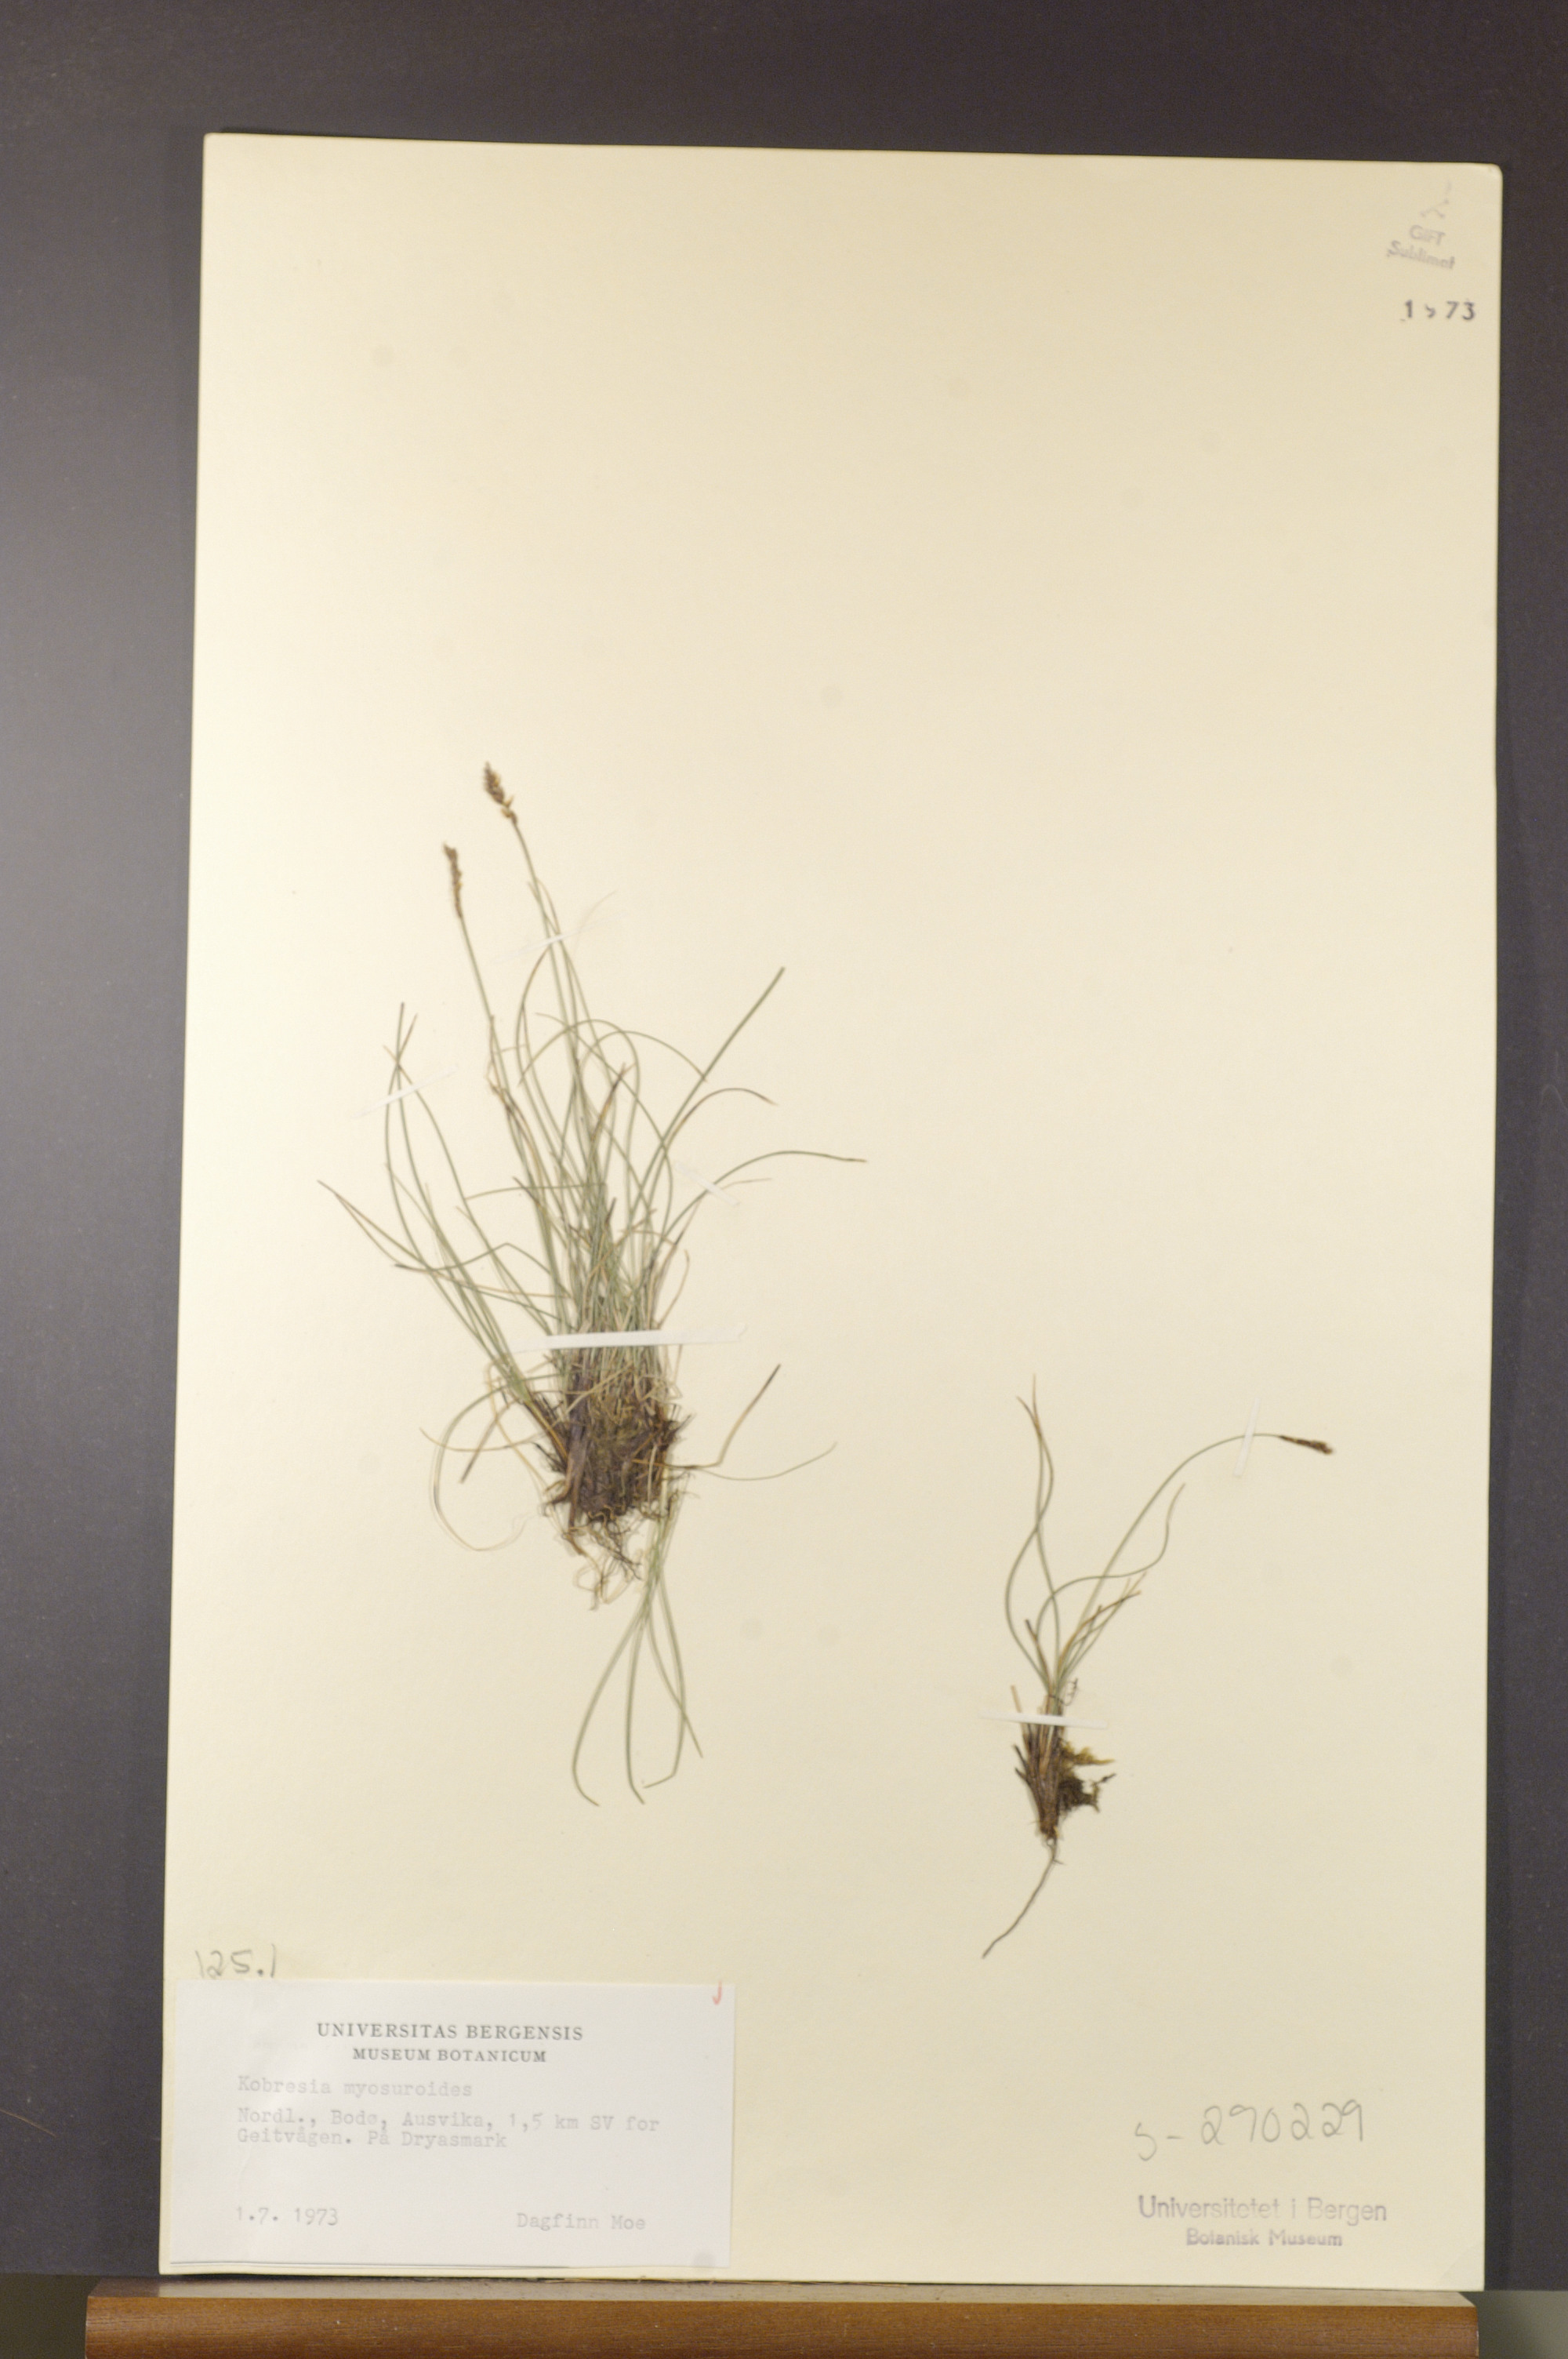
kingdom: Plantae
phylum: Tracheophyta
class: Liliopsida
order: Poales
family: Cyperaceae
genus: Carex
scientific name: Carex myosuroides
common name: Bellard's bog sedge
